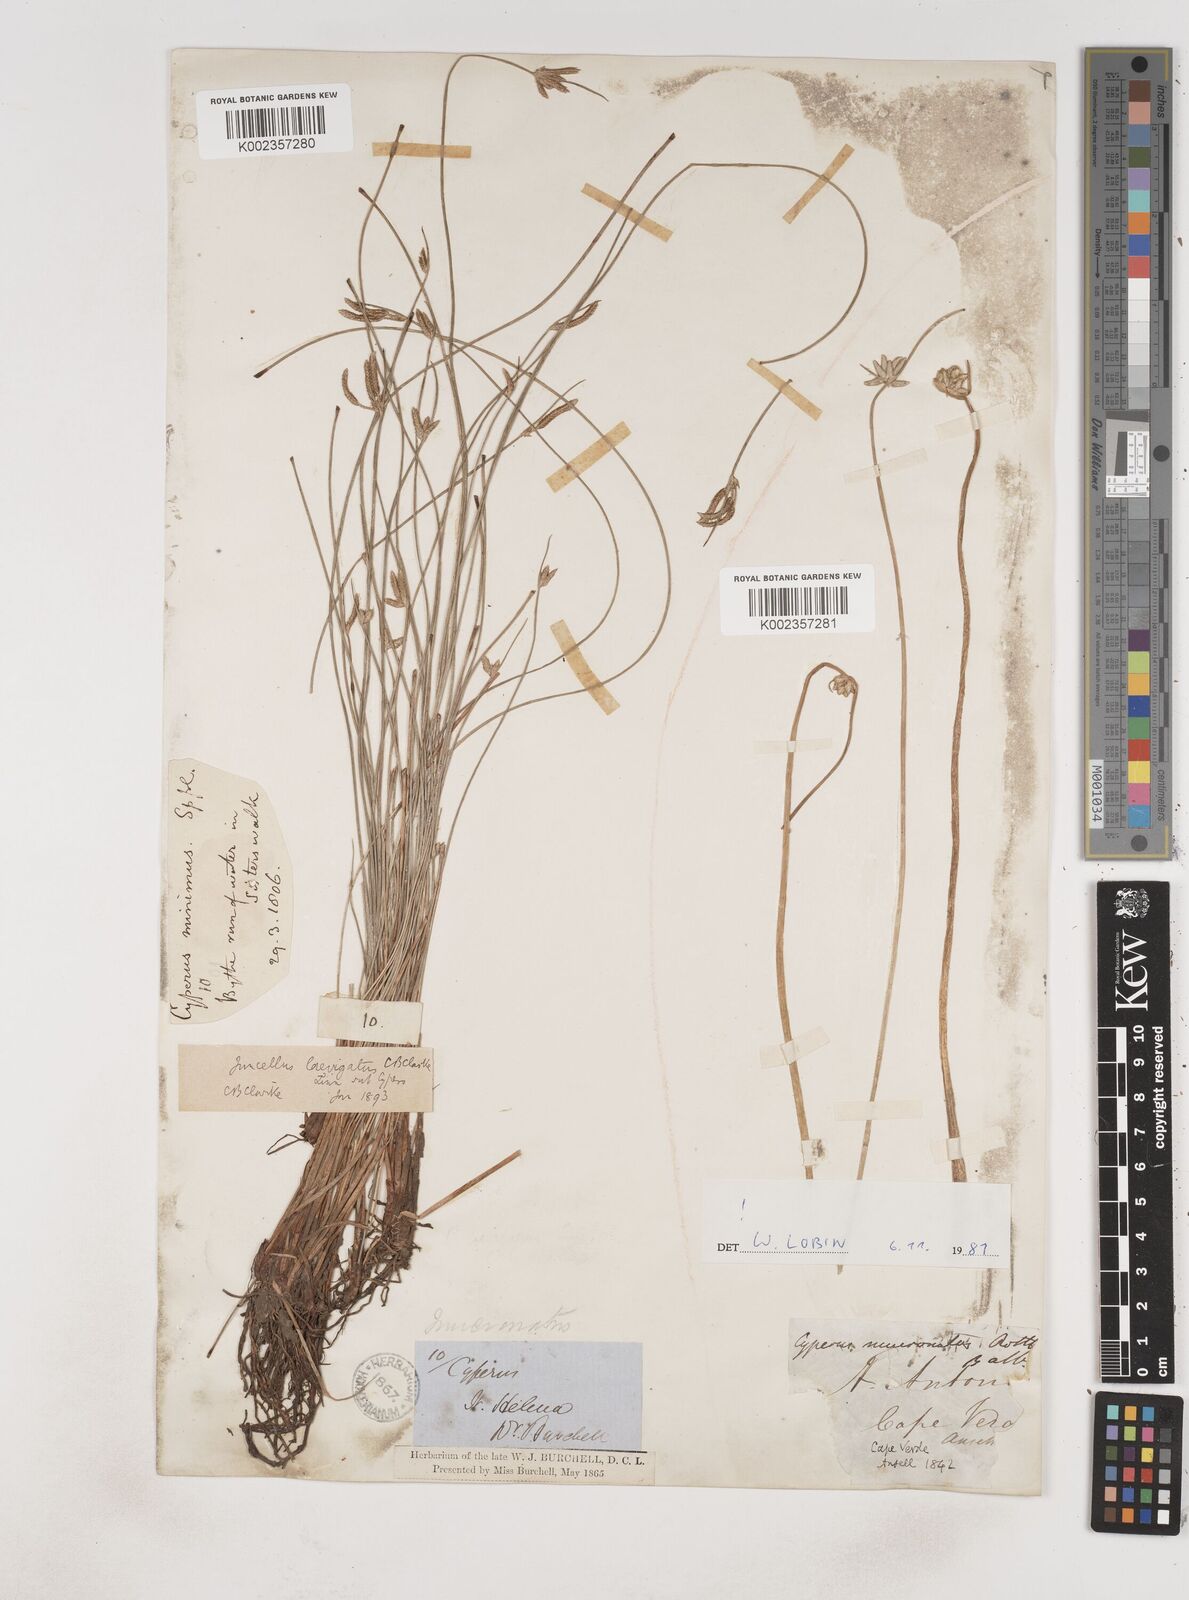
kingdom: Plantae
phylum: Tracheophyta
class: Liliopsida
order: Poales
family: Cyperaceae
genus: Cyperus
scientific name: Cyperus laevigatus
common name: Smooth flat sedge
